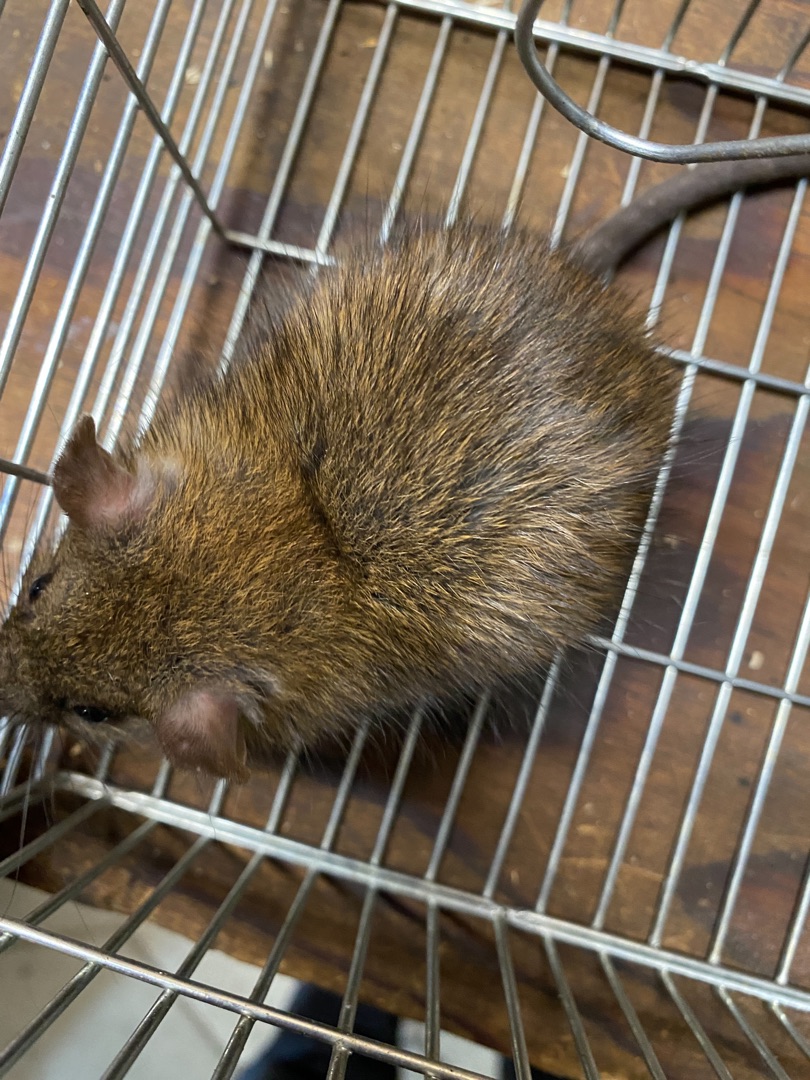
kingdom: Animalia
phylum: Chordata
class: Mammalia
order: Rodentia
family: Muridae
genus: Rattus
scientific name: Rattus norvegicus
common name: Brun rotte
